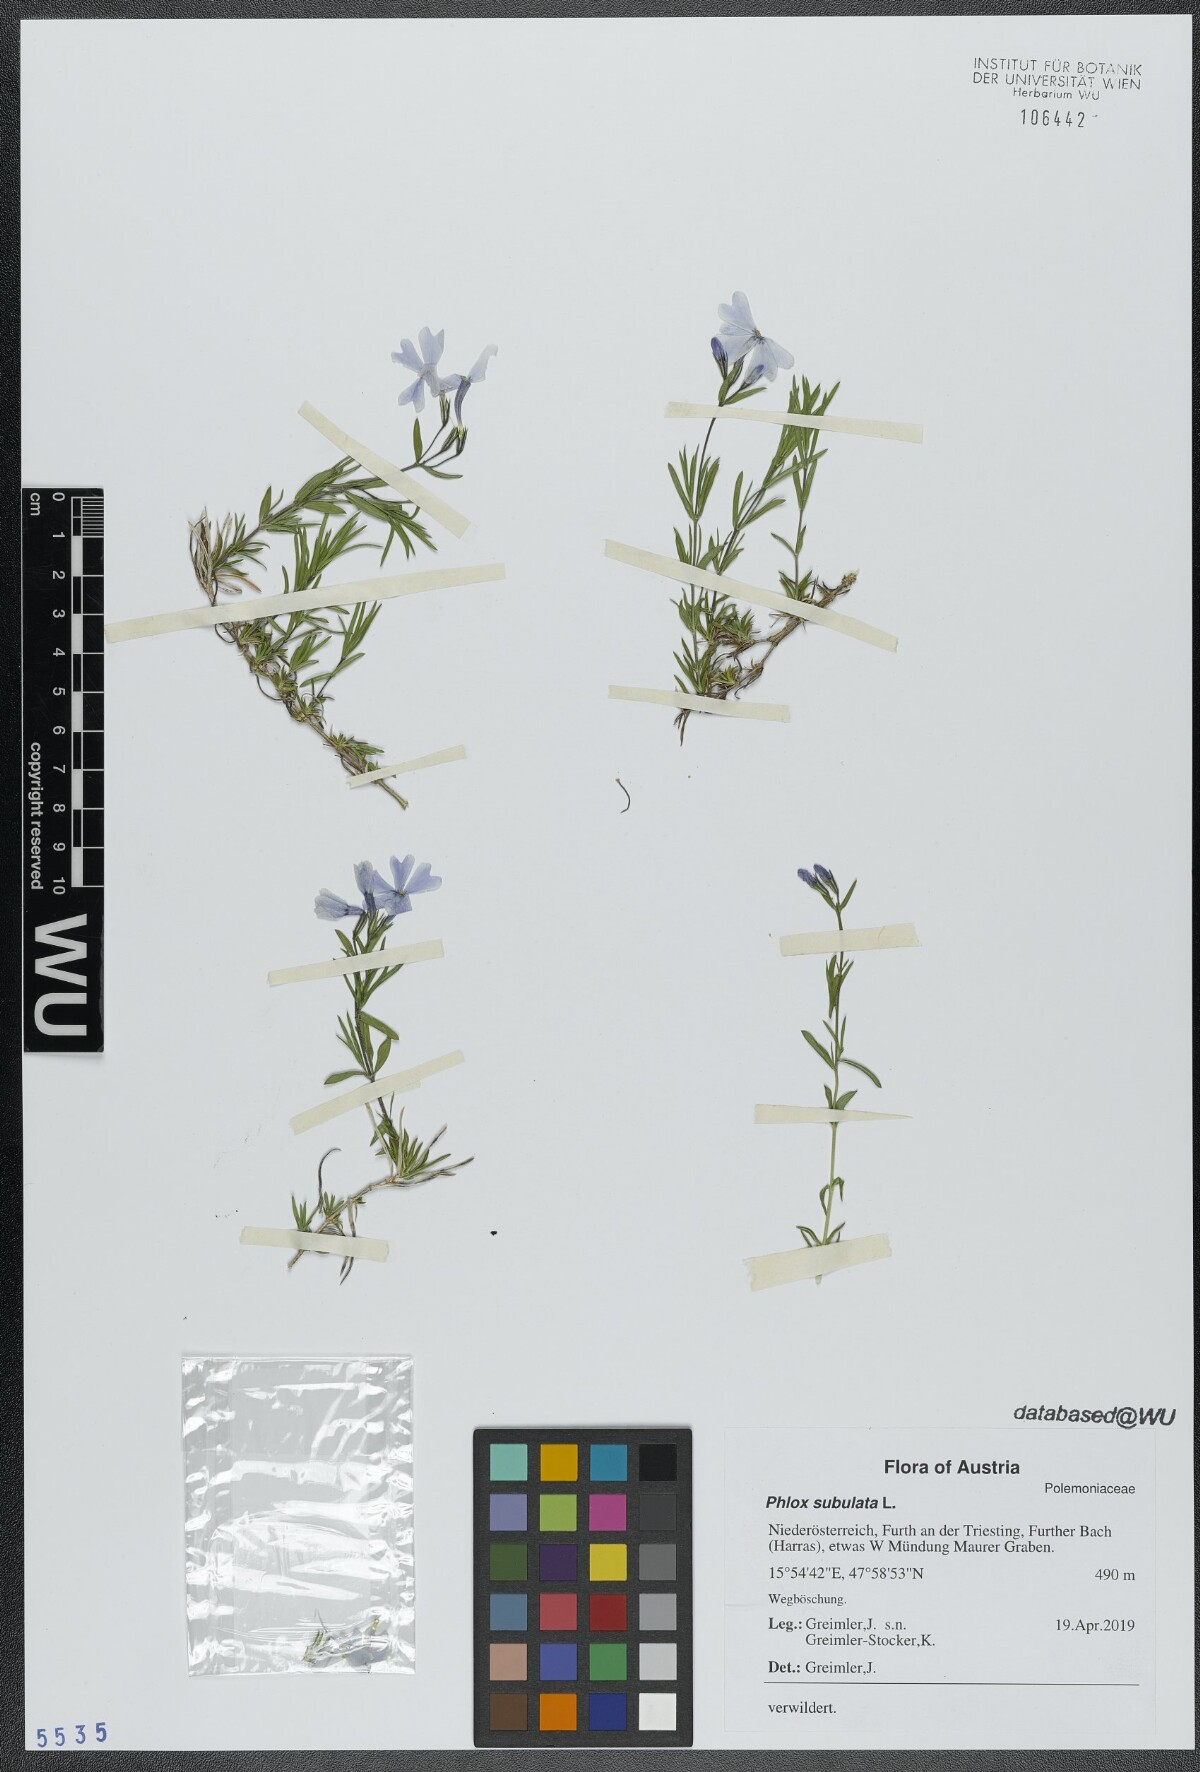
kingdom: Plantae
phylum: Tracheophyta
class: Magnoliopsida
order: Ericales
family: Polemoniaceae
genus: Phlox
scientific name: Phlox subulata
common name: Moss phlox
